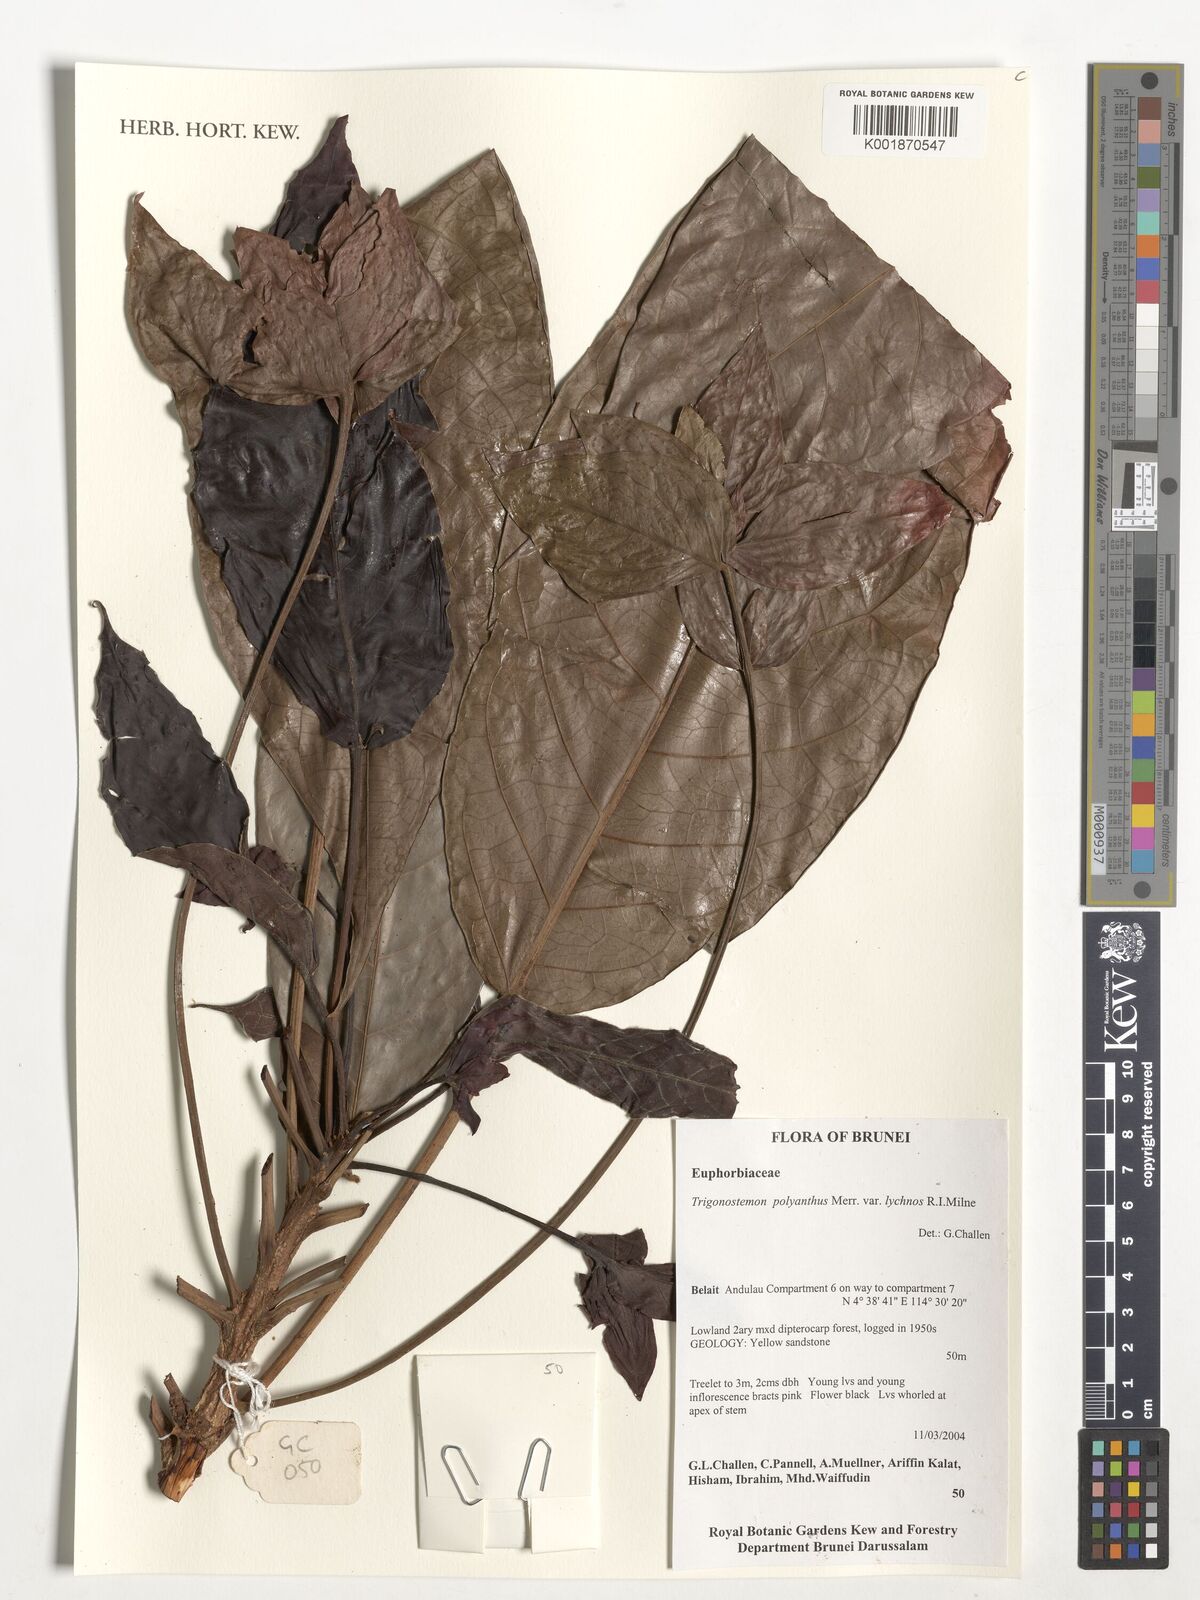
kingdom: Plantae
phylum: Tracheophyta
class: Magnoliopsida
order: Malpighiales
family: Euphorbiaceae
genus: Trigonostemon
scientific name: Trigonostemon lychnos
